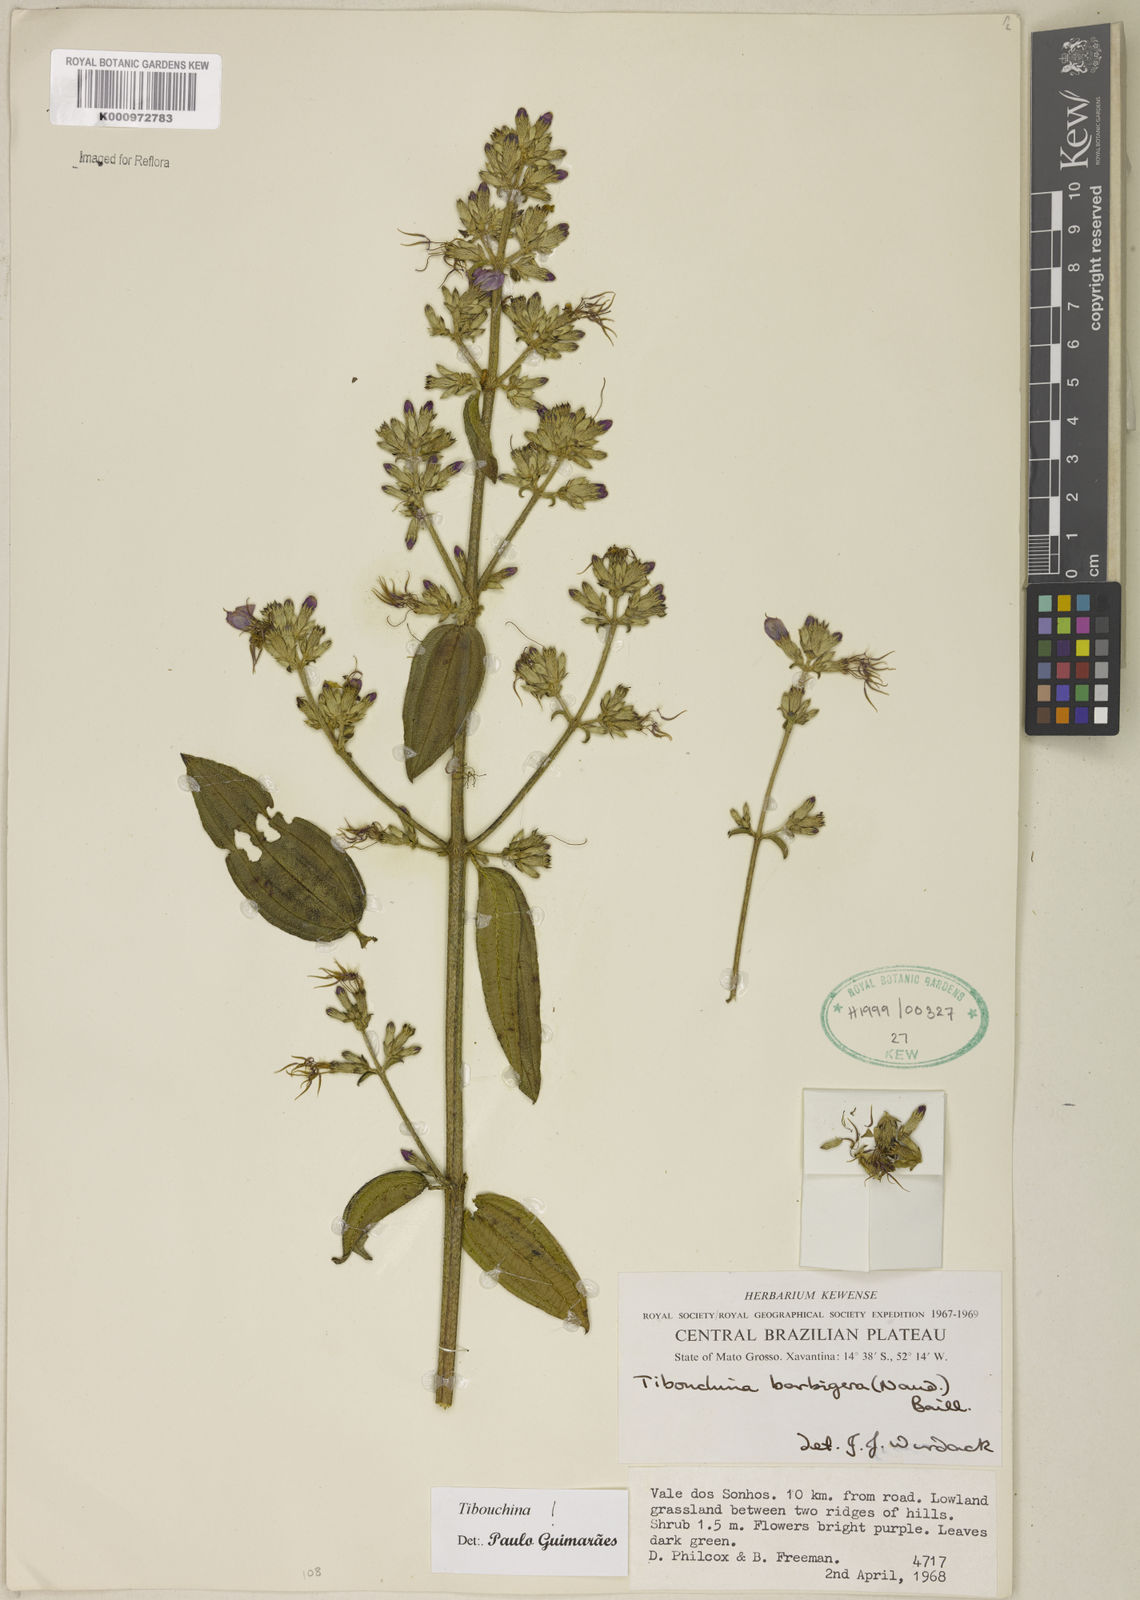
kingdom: Plantae
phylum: Tracheophyta
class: Magnoliopsida
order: Myrtales
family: Melastomataceae
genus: Pleroma
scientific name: Pleroma barbigerum
